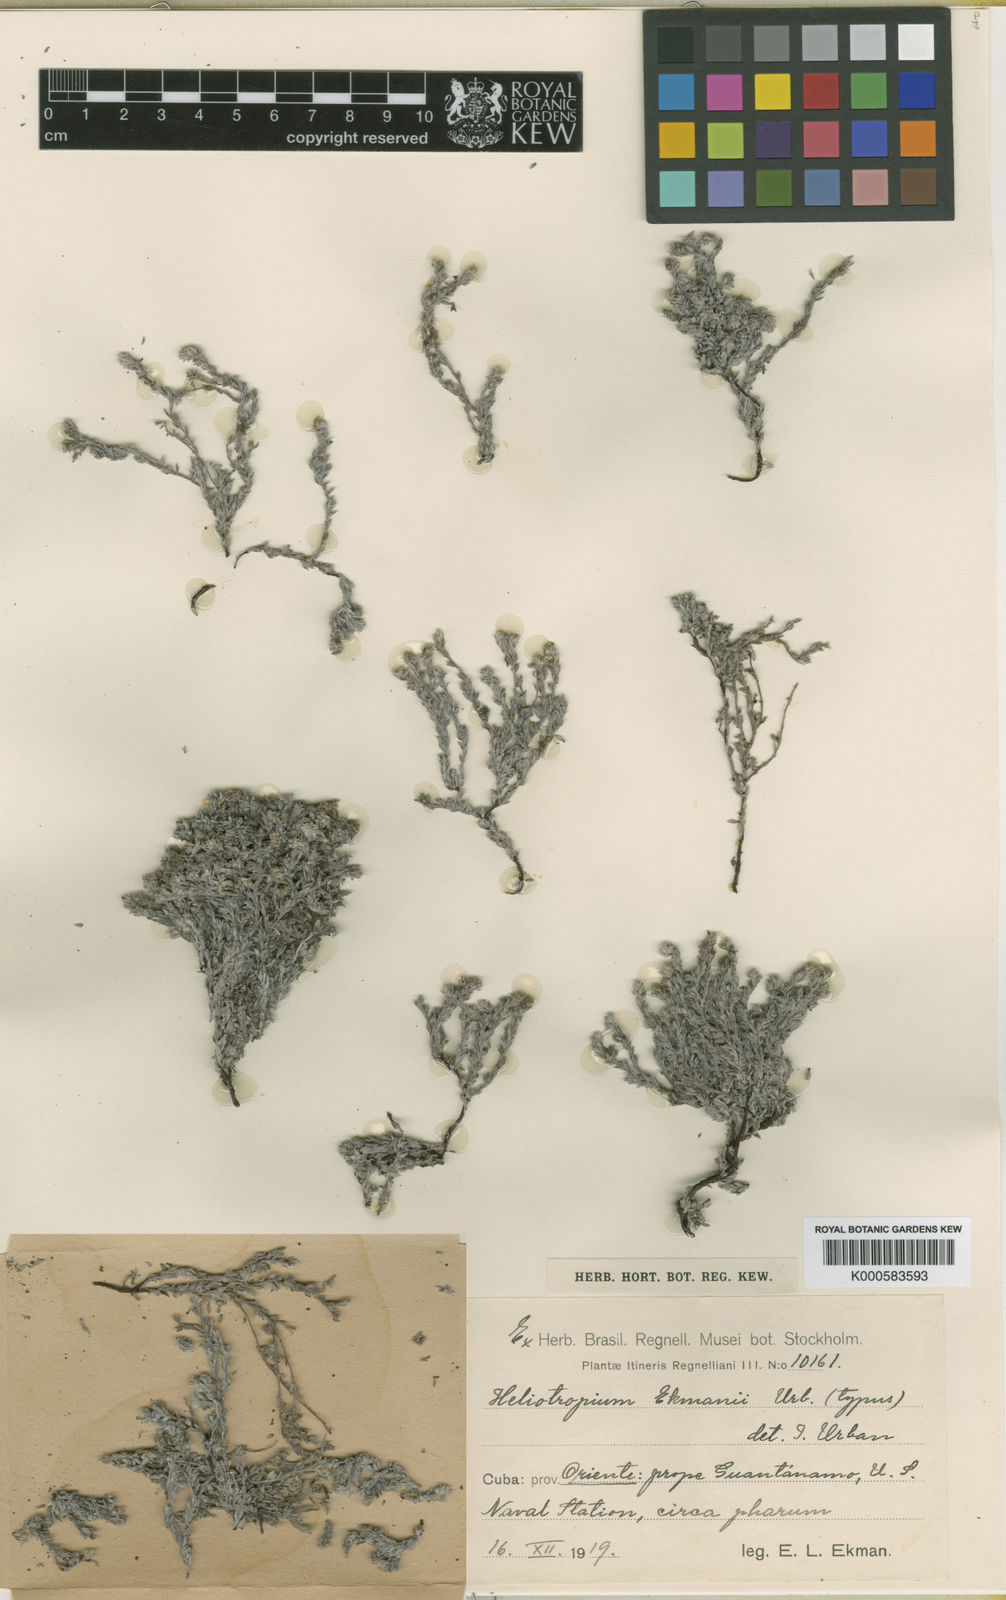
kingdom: Plantae
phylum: Tracheophyta
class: Magnoliopsida
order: Boraginales
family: Heliotropiaceae
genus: Euploca
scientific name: Euploca microphylla
